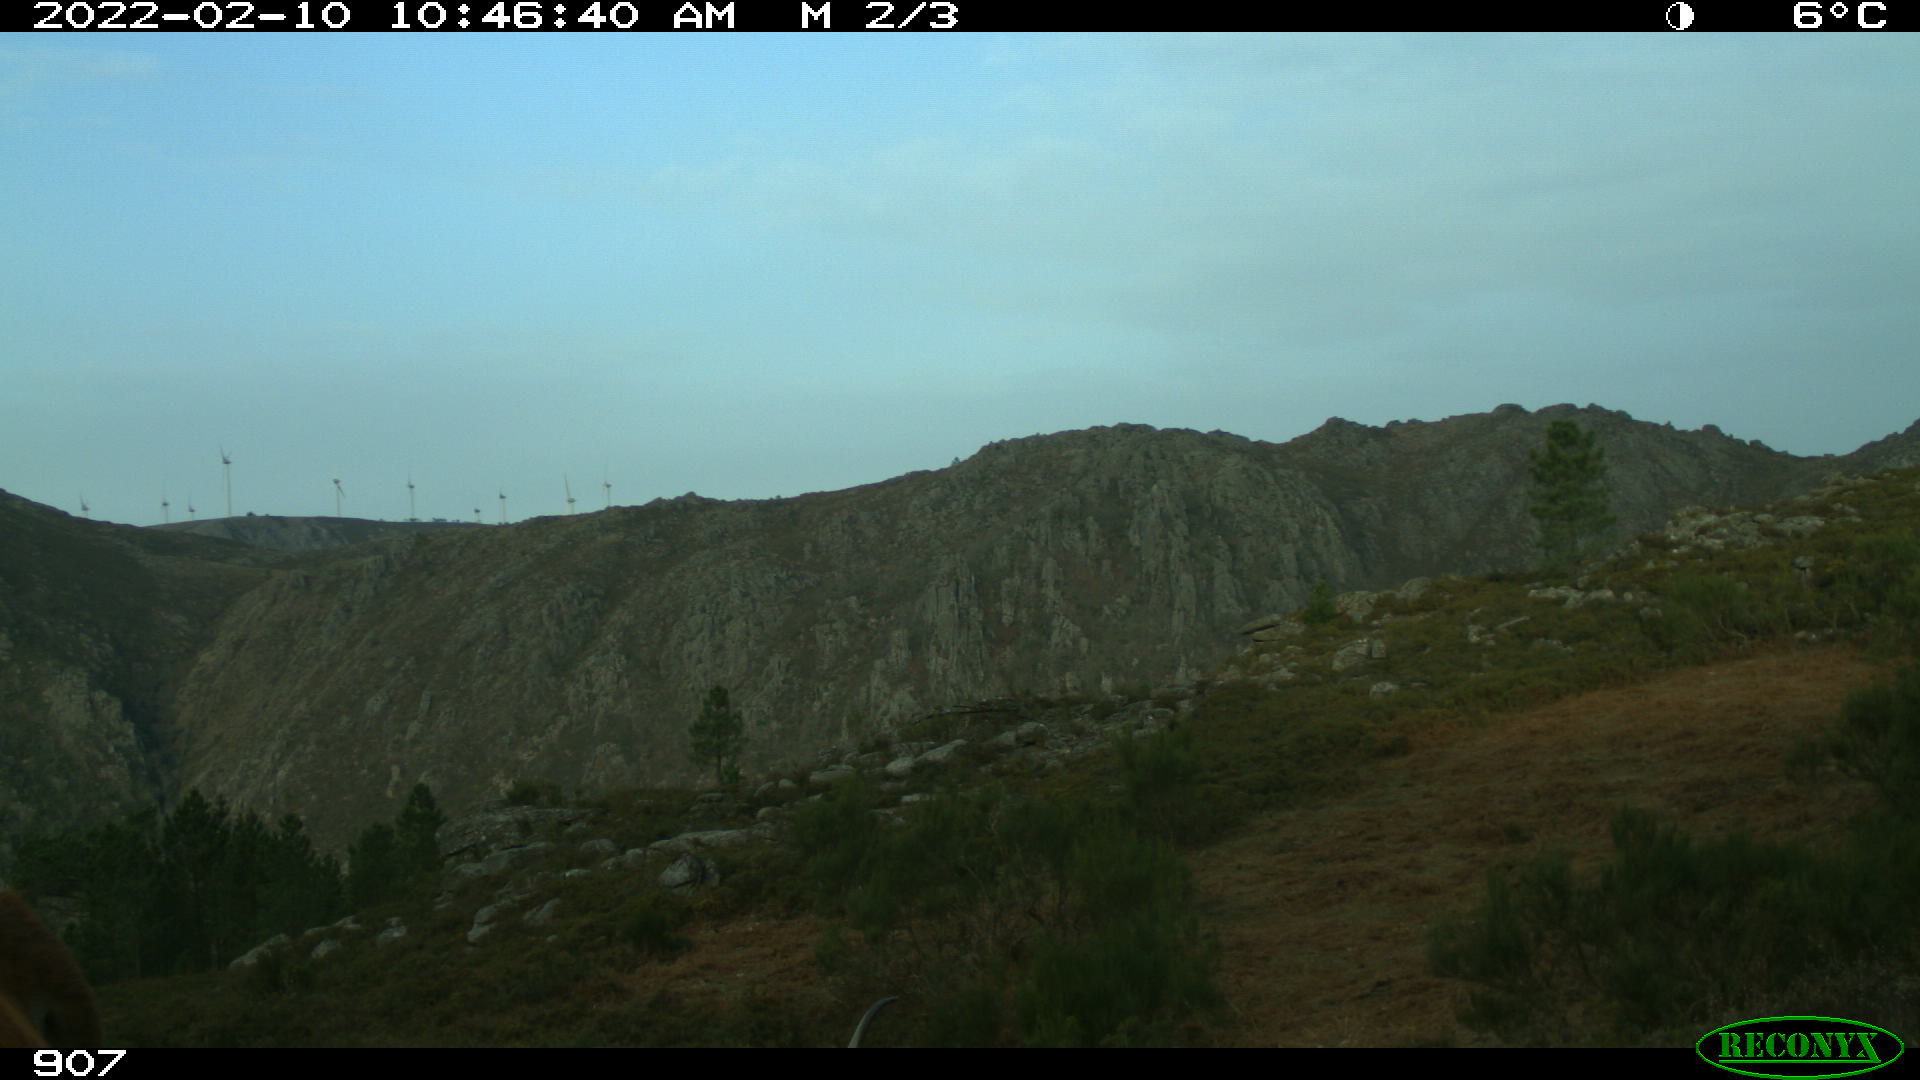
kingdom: Animalia
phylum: Chordata
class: Mammalia
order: Artiodactyla
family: Bovidae
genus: Bos
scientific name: Bos taurus
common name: Domesticated cattle
